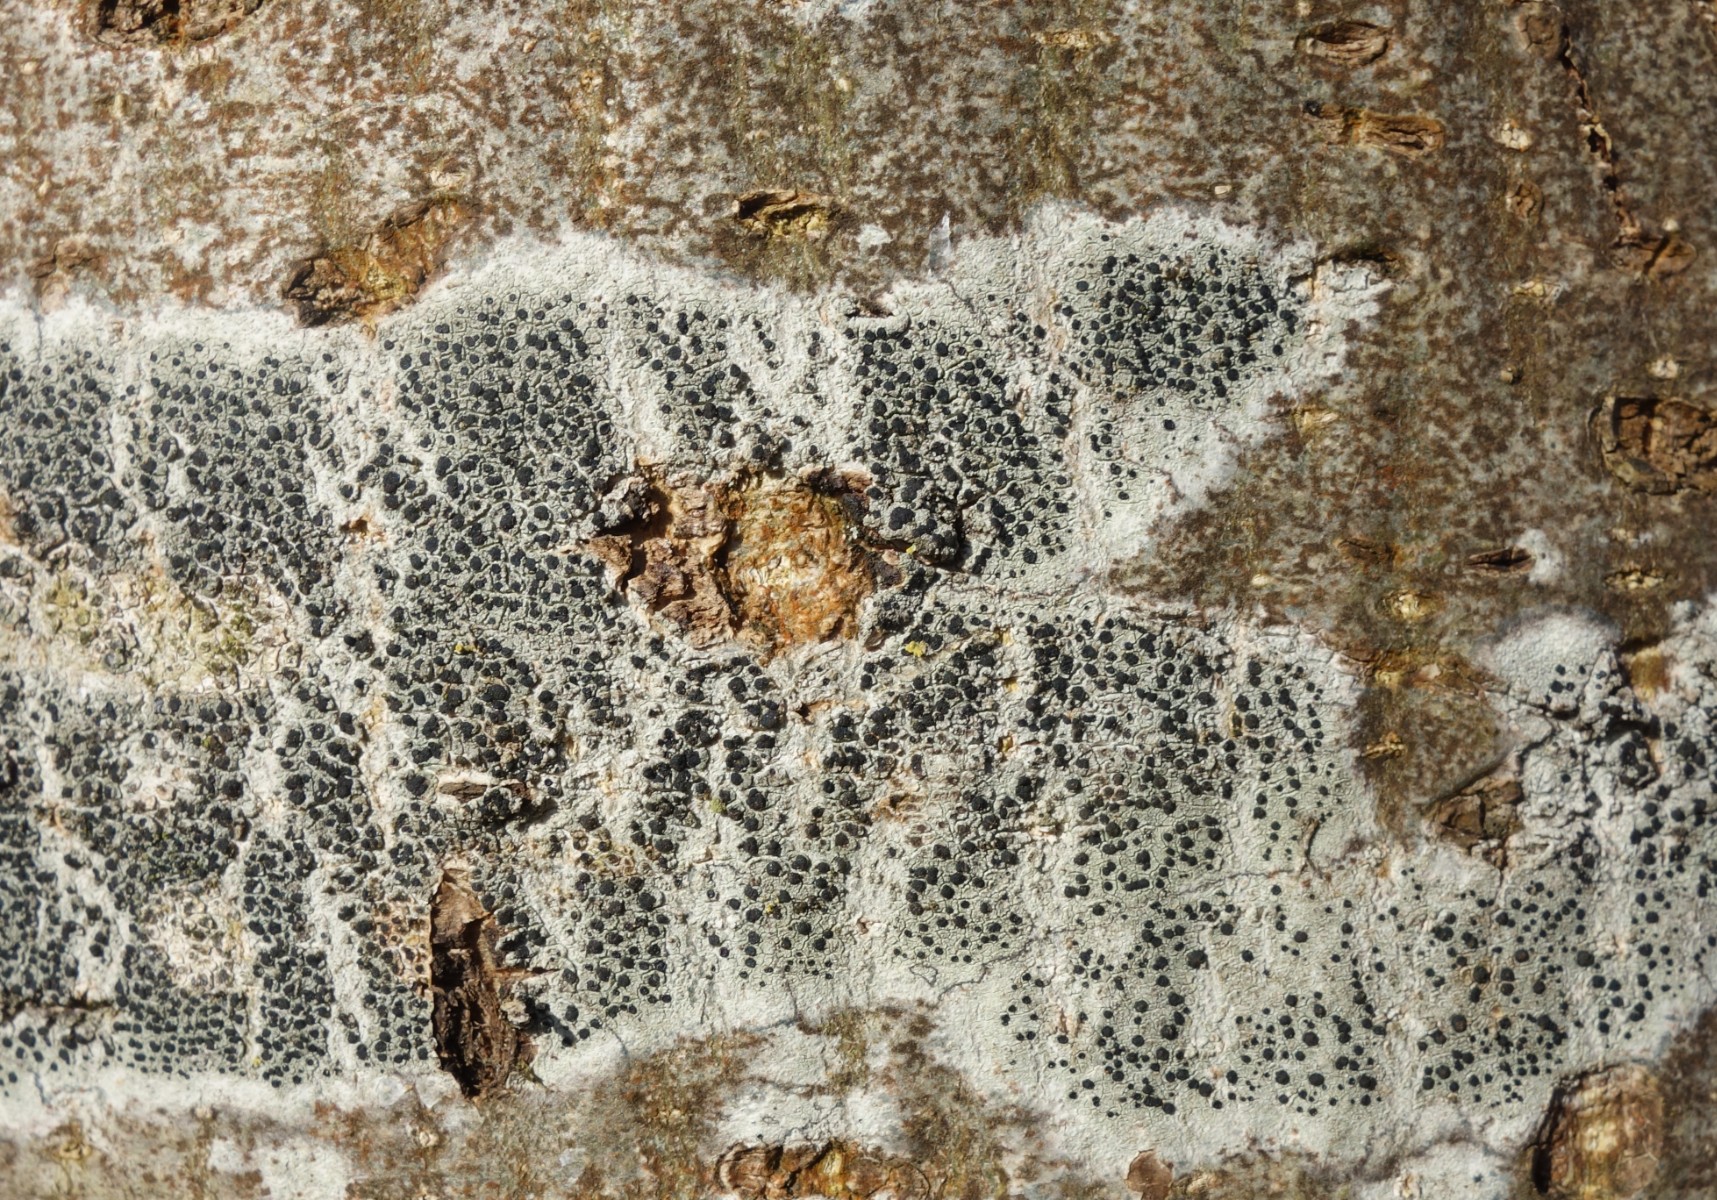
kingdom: Fungi
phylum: Ascomycota
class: Lecanoromycetes
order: Lecanorales
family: Lecanoraceae
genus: Lecidella
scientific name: Lecidella elaeochroma
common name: grågrøn skivelav
